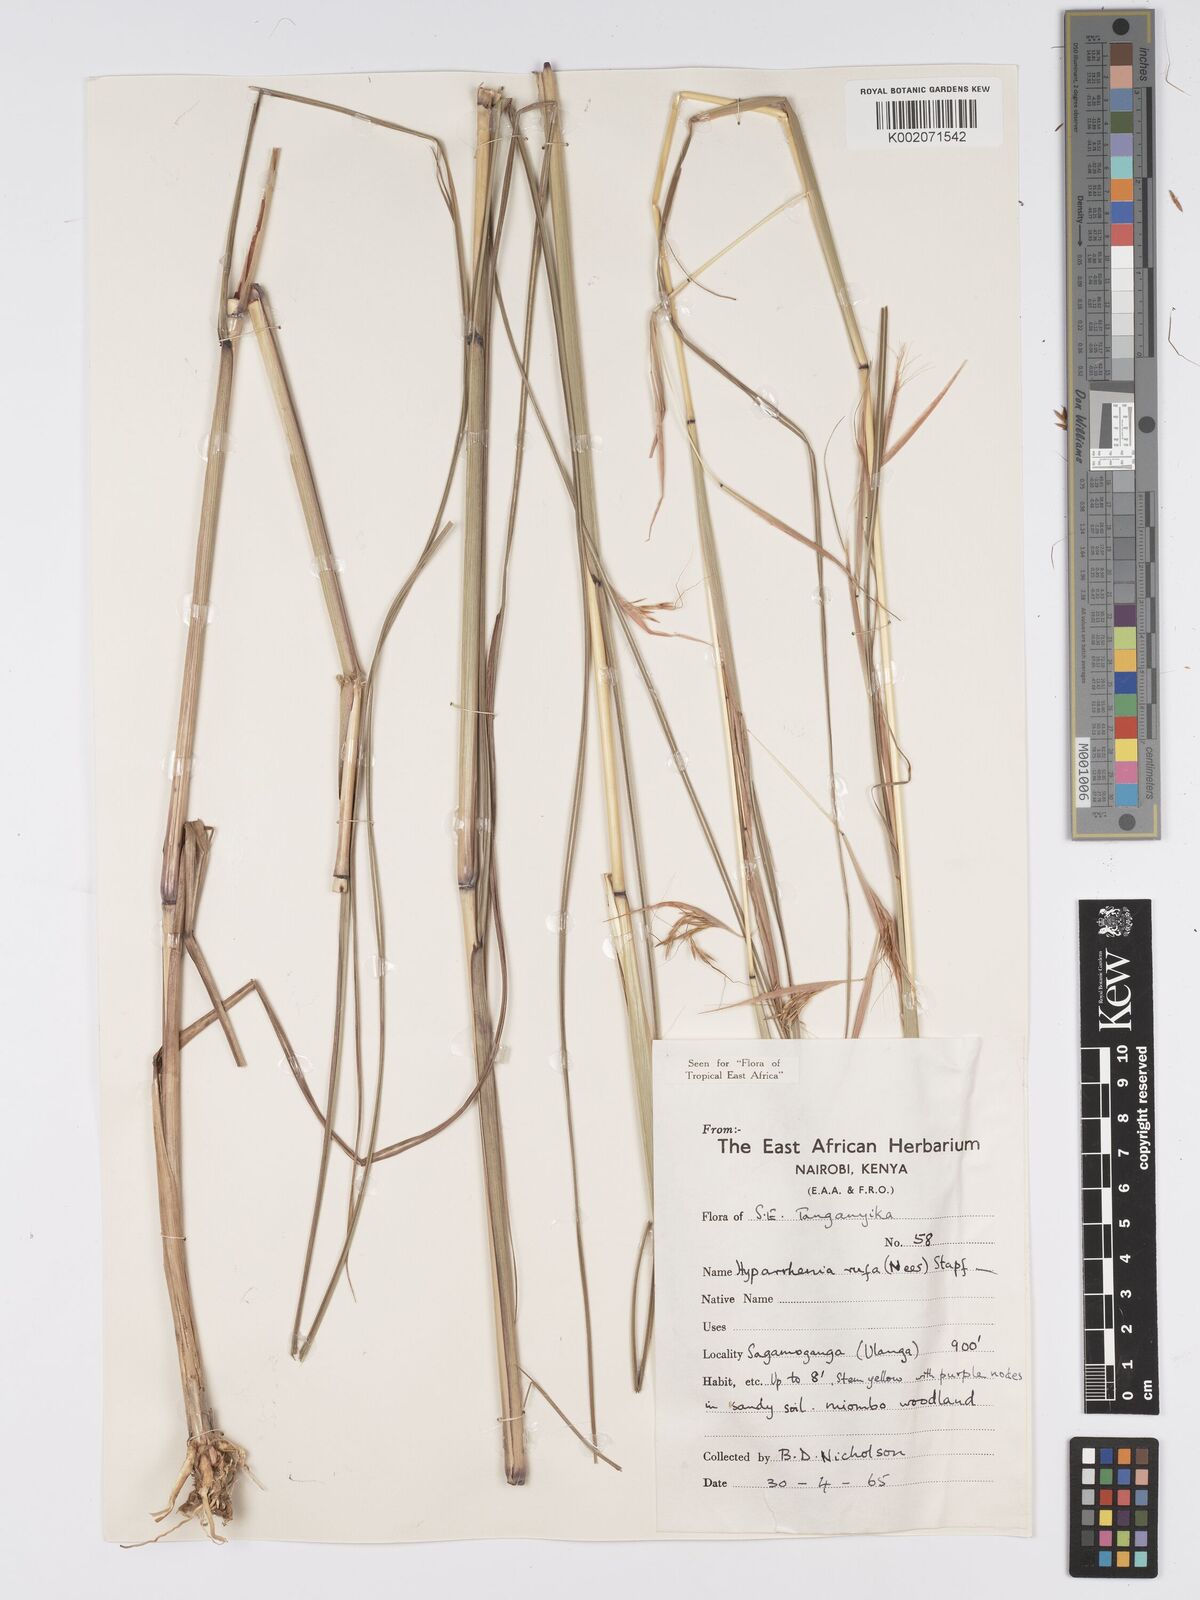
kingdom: Plantae
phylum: Tracheophyta
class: Liliopsida
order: Poales
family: Poaceae
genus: Hyparrhenia
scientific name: Hyparrhenia rufa
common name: Jaraguagrass
